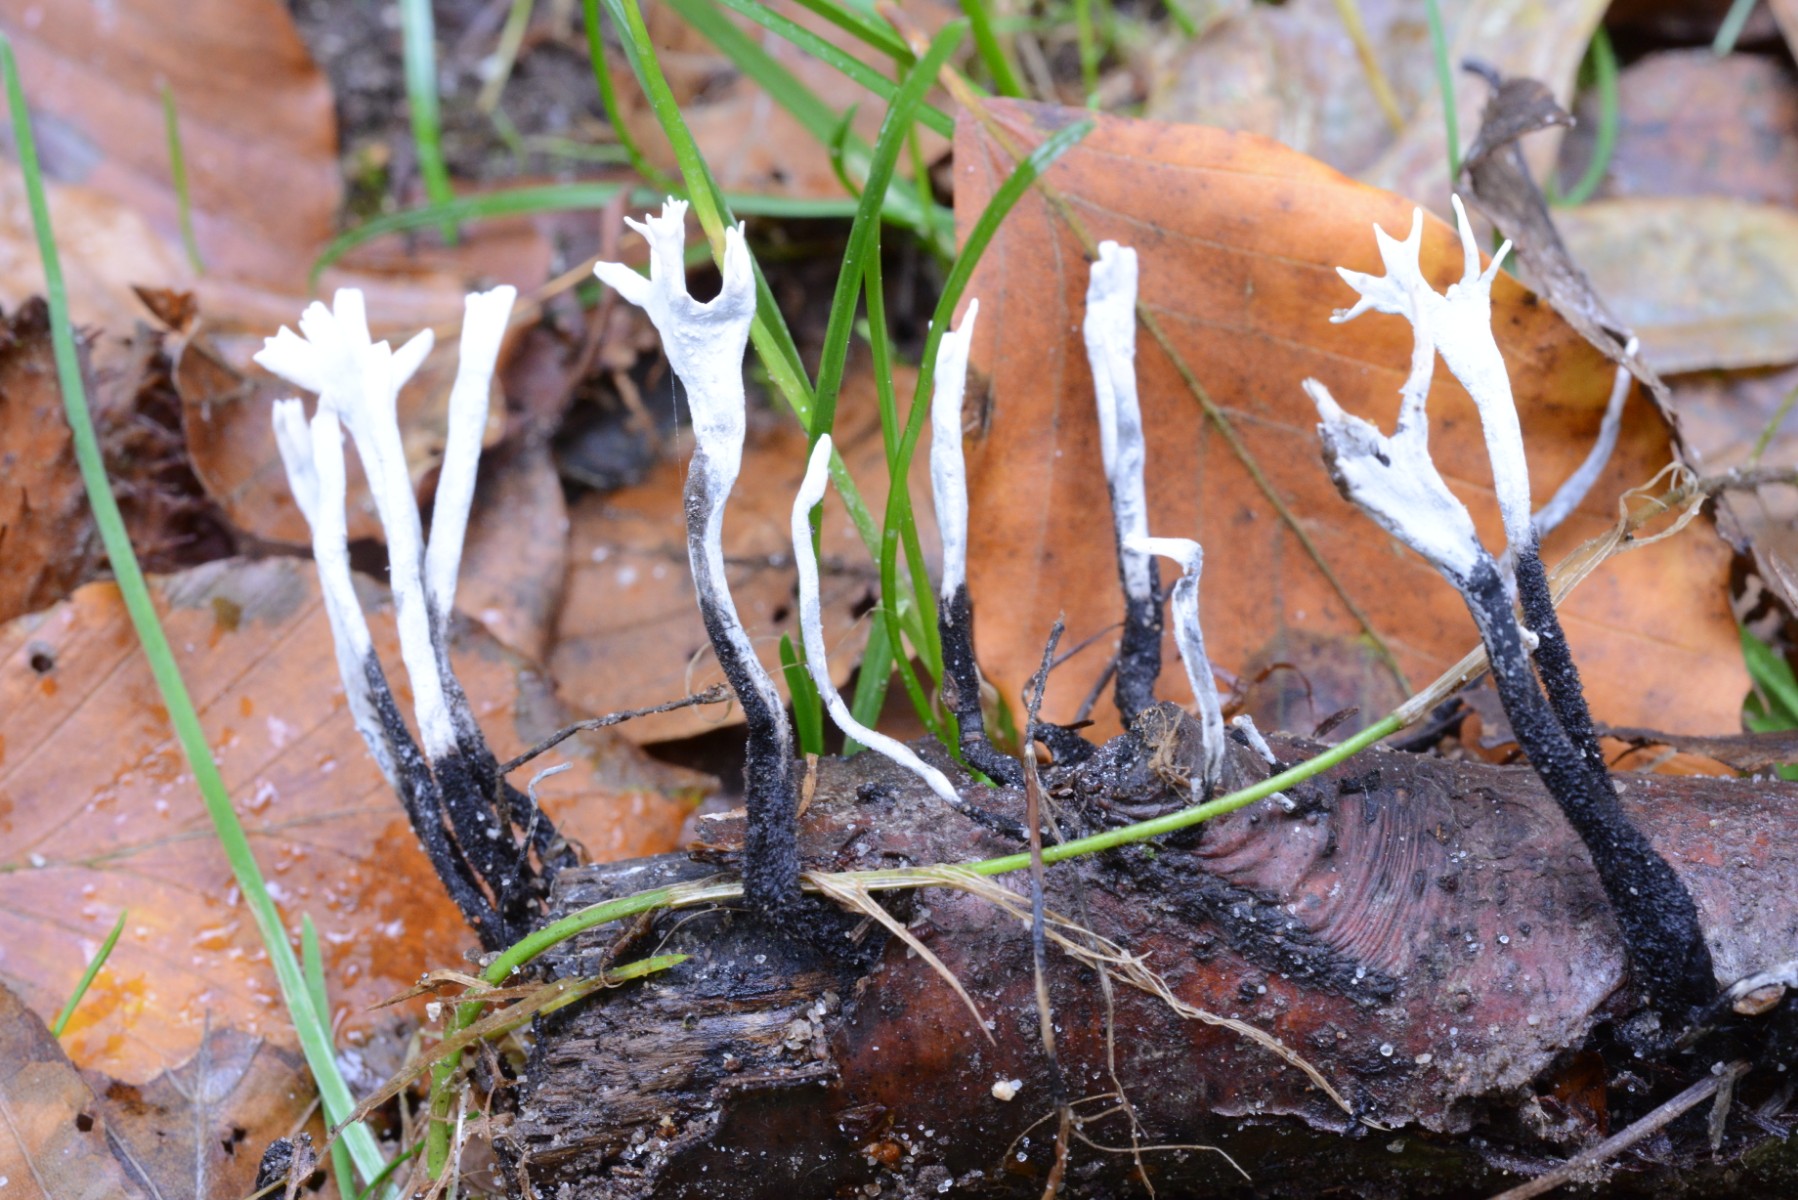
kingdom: Fungi
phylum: Ascomycota
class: Sordariomycetes
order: Xylariales
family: Xylariaceae
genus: Xylaria
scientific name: Xylaria hypoxylon
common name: grenet stødsvamp
